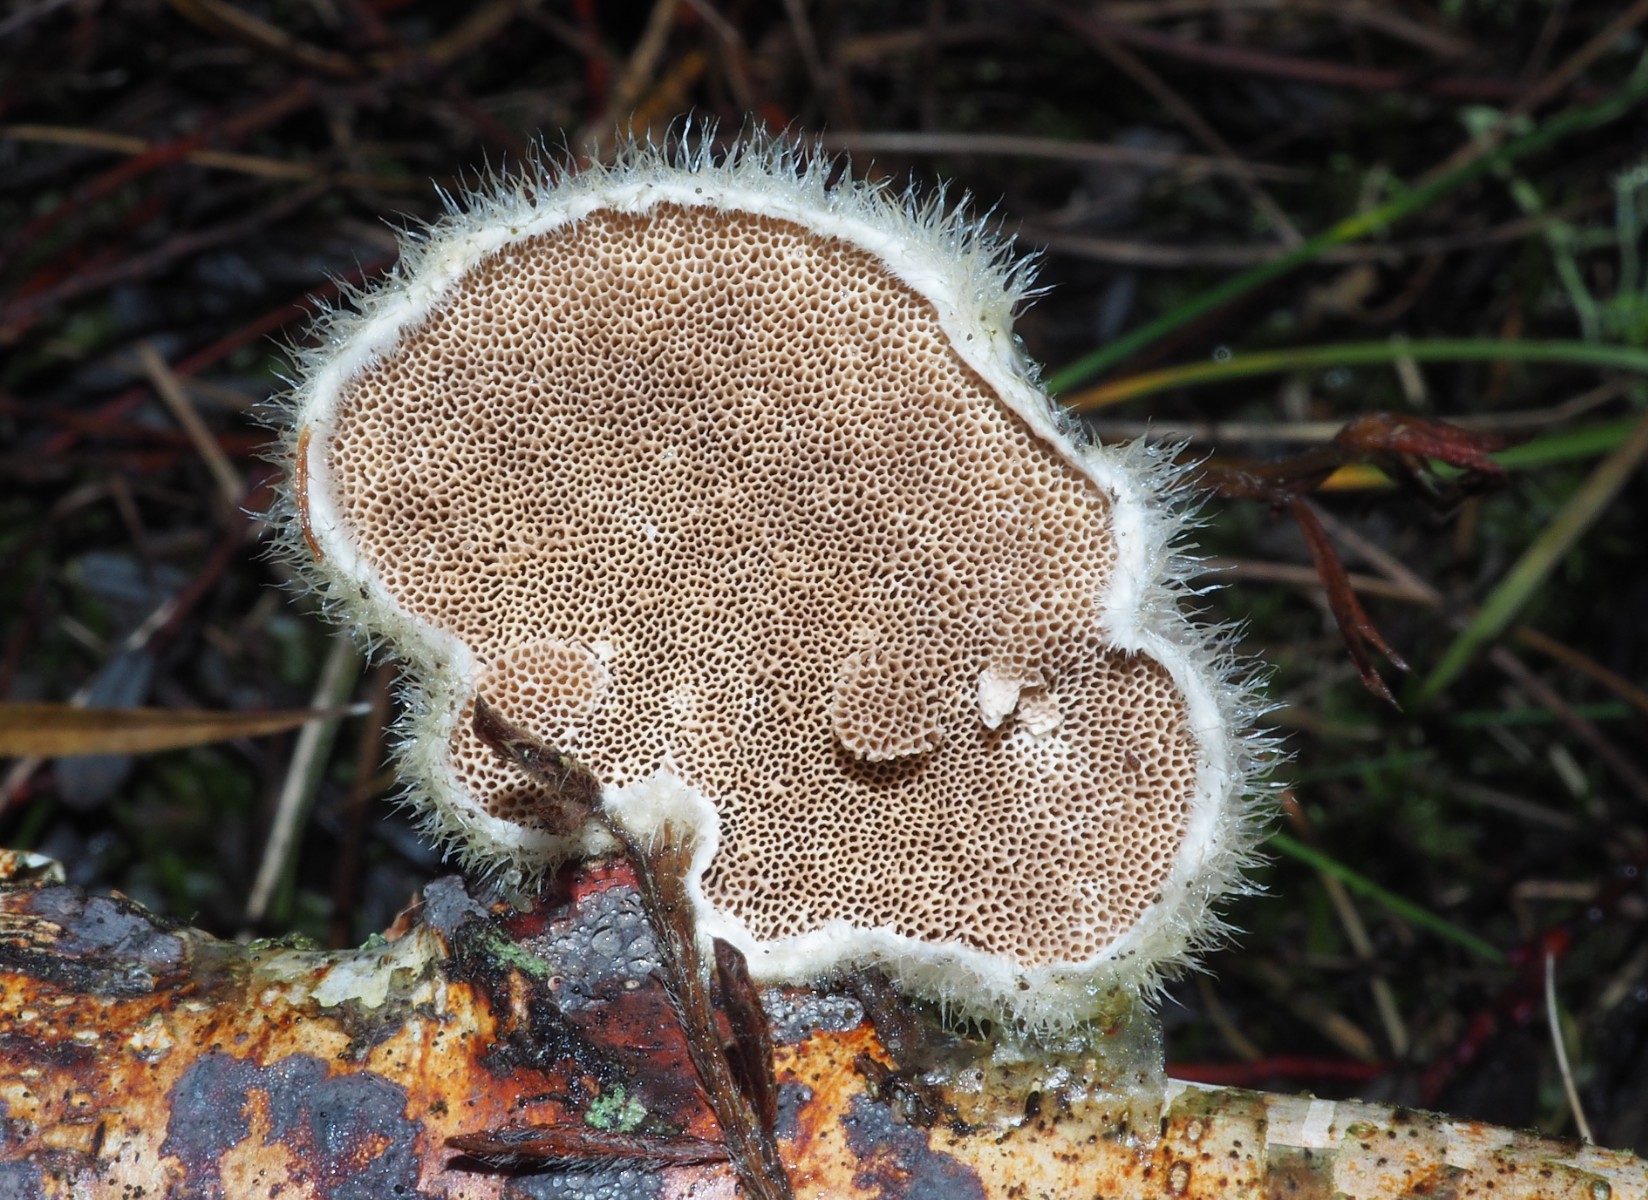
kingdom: Fungi
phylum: Basidiomycota
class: Agaricomycetes
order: Polyporales
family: Polyporaceae
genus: Trametes
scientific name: Trametes hirsuta
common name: håret læderporesvamp
